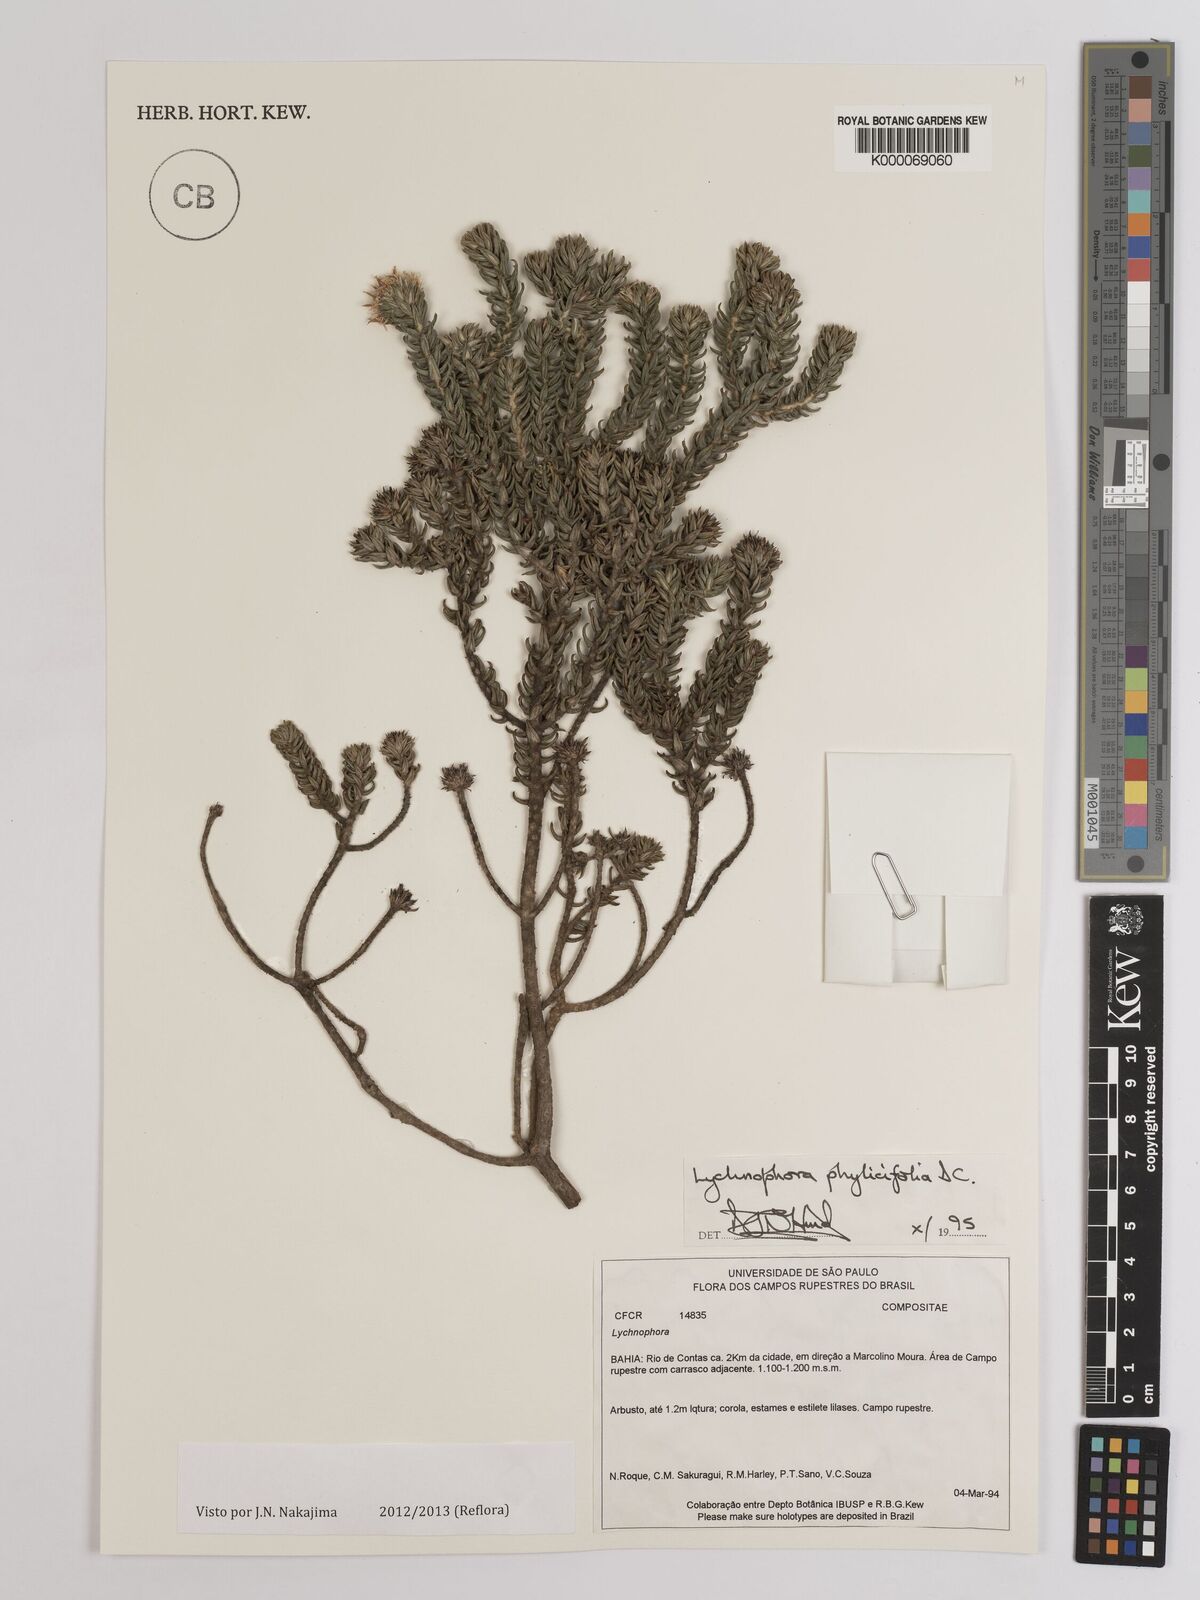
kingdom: Plantae
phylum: Tracheophyta
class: Magnoliopsida
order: Asterales
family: Asteraceae
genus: Lychnophora
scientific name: Lychnophora phylicifolia
